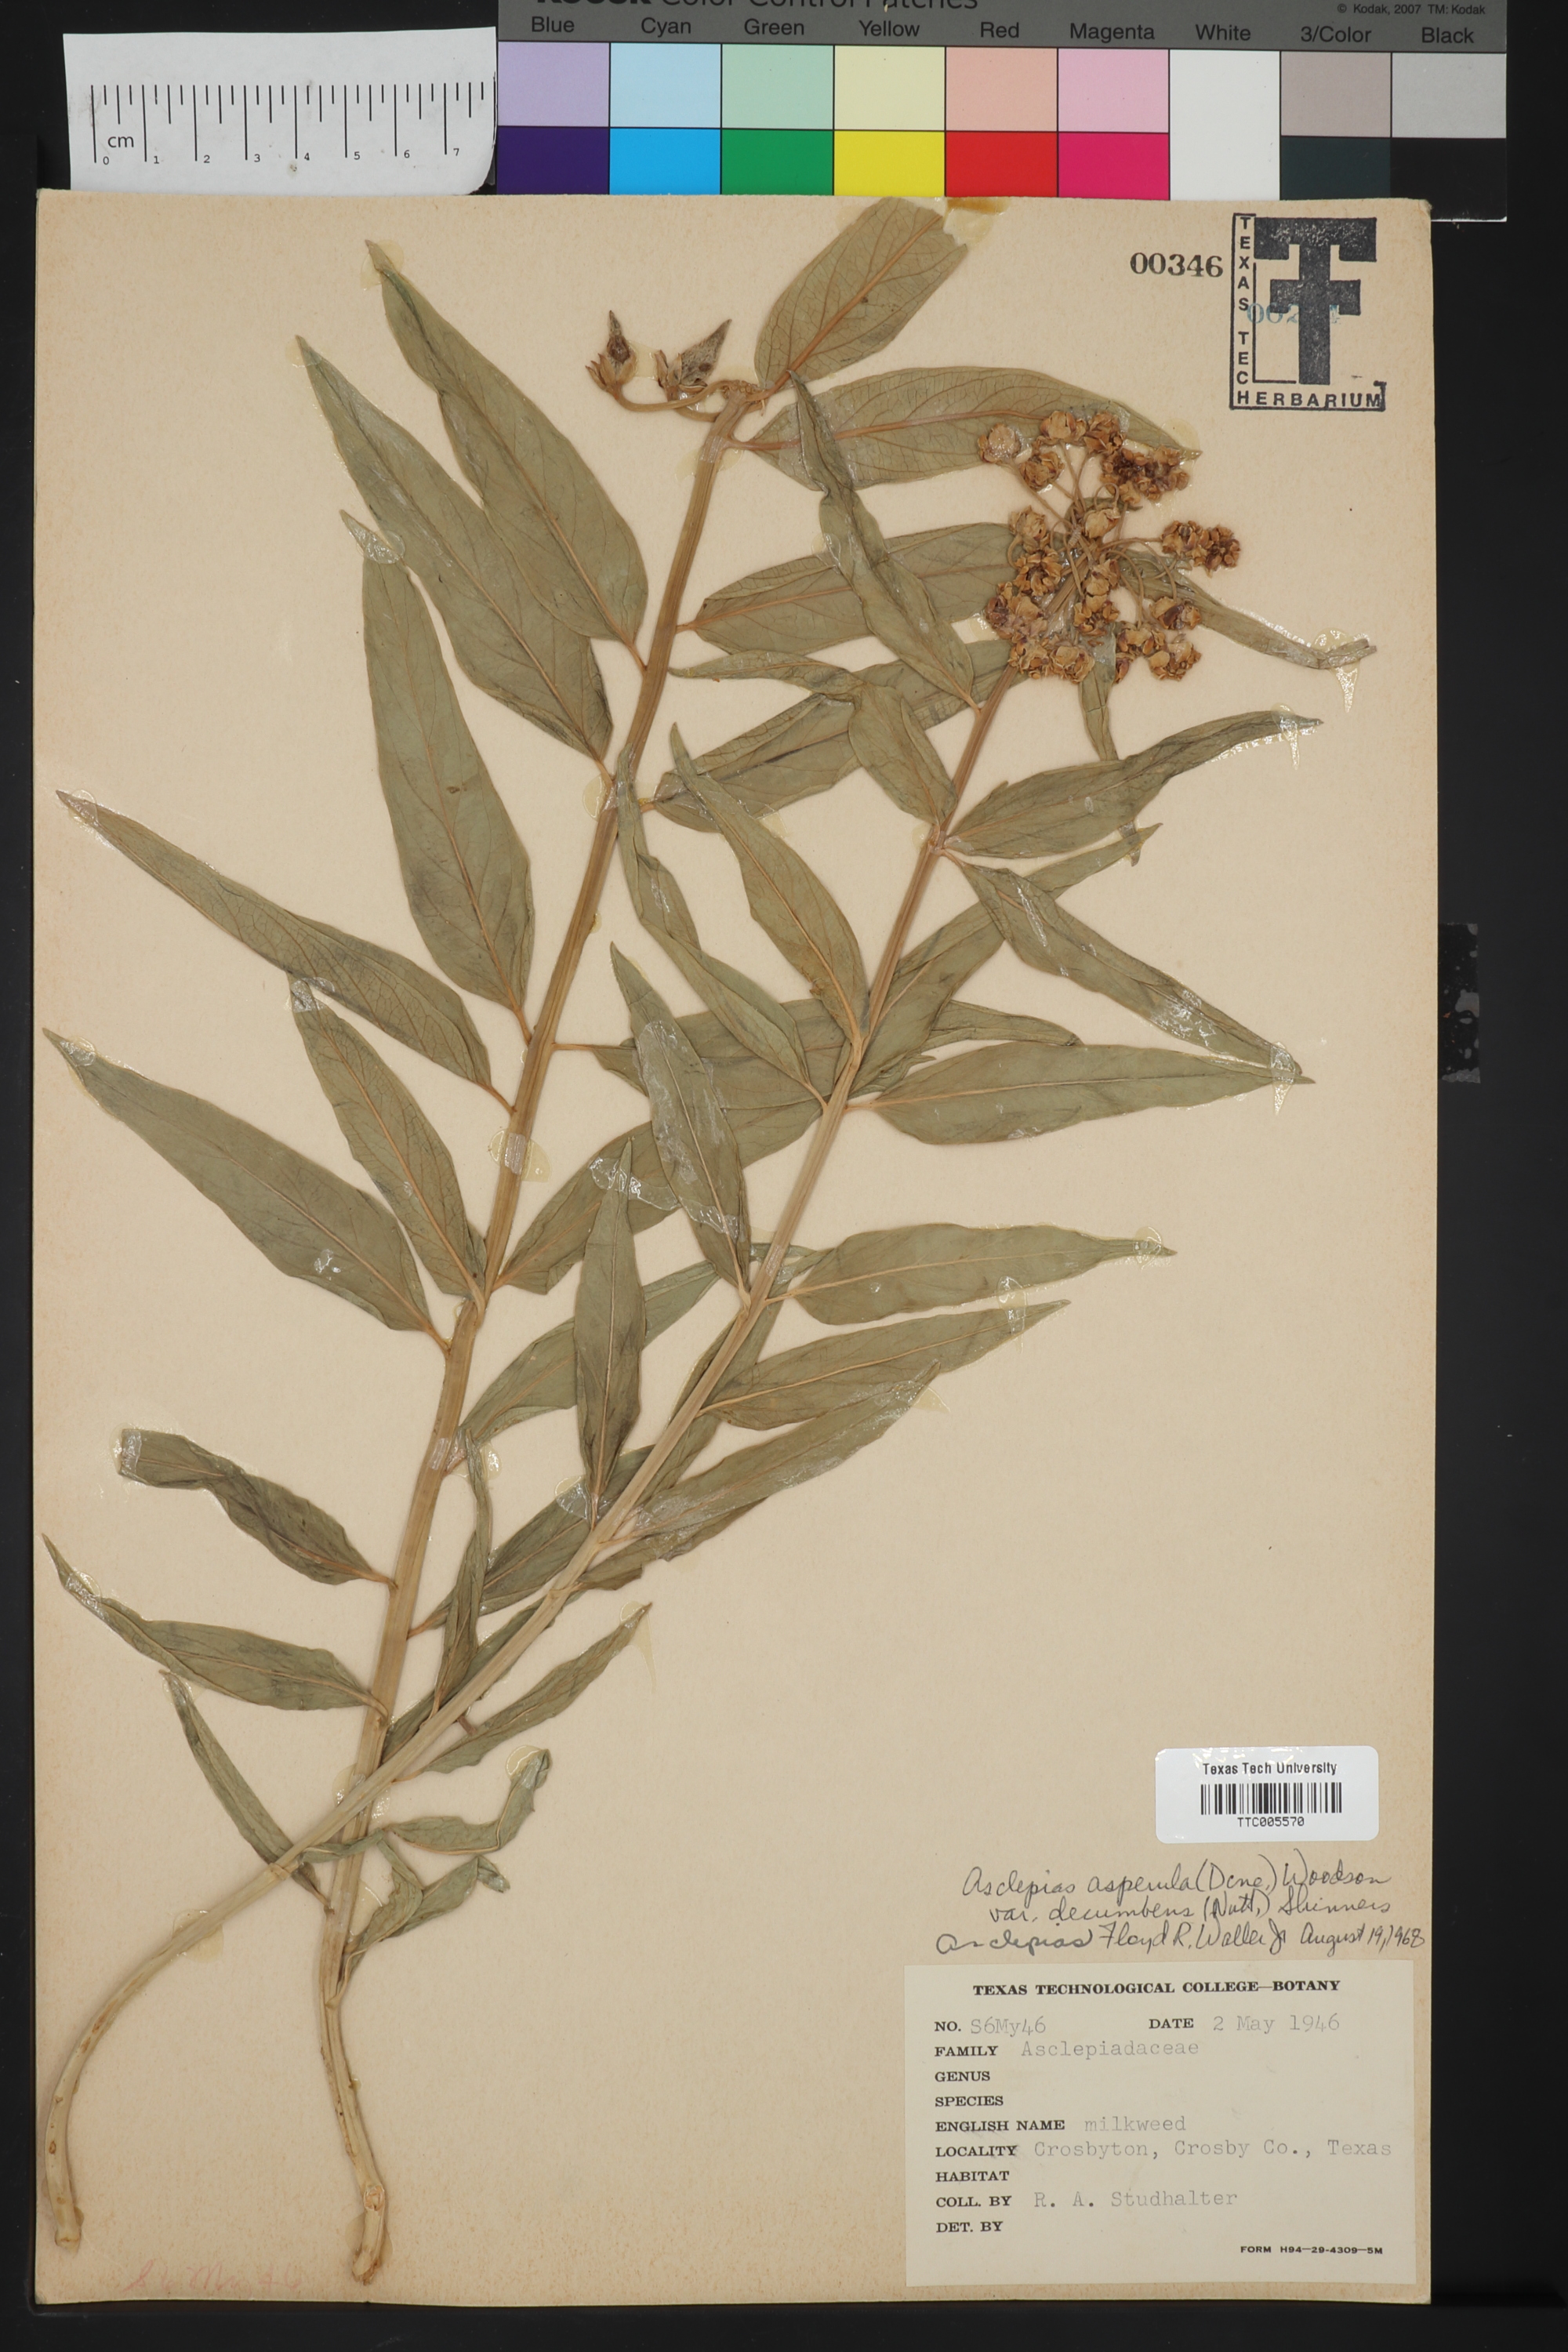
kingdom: Plantae
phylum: Tracheophyta
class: Magnoliopsida
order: Gentianales
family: Apocynaceae
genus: Asclepias
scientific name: Asclepias asperula
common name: Antelope horns
